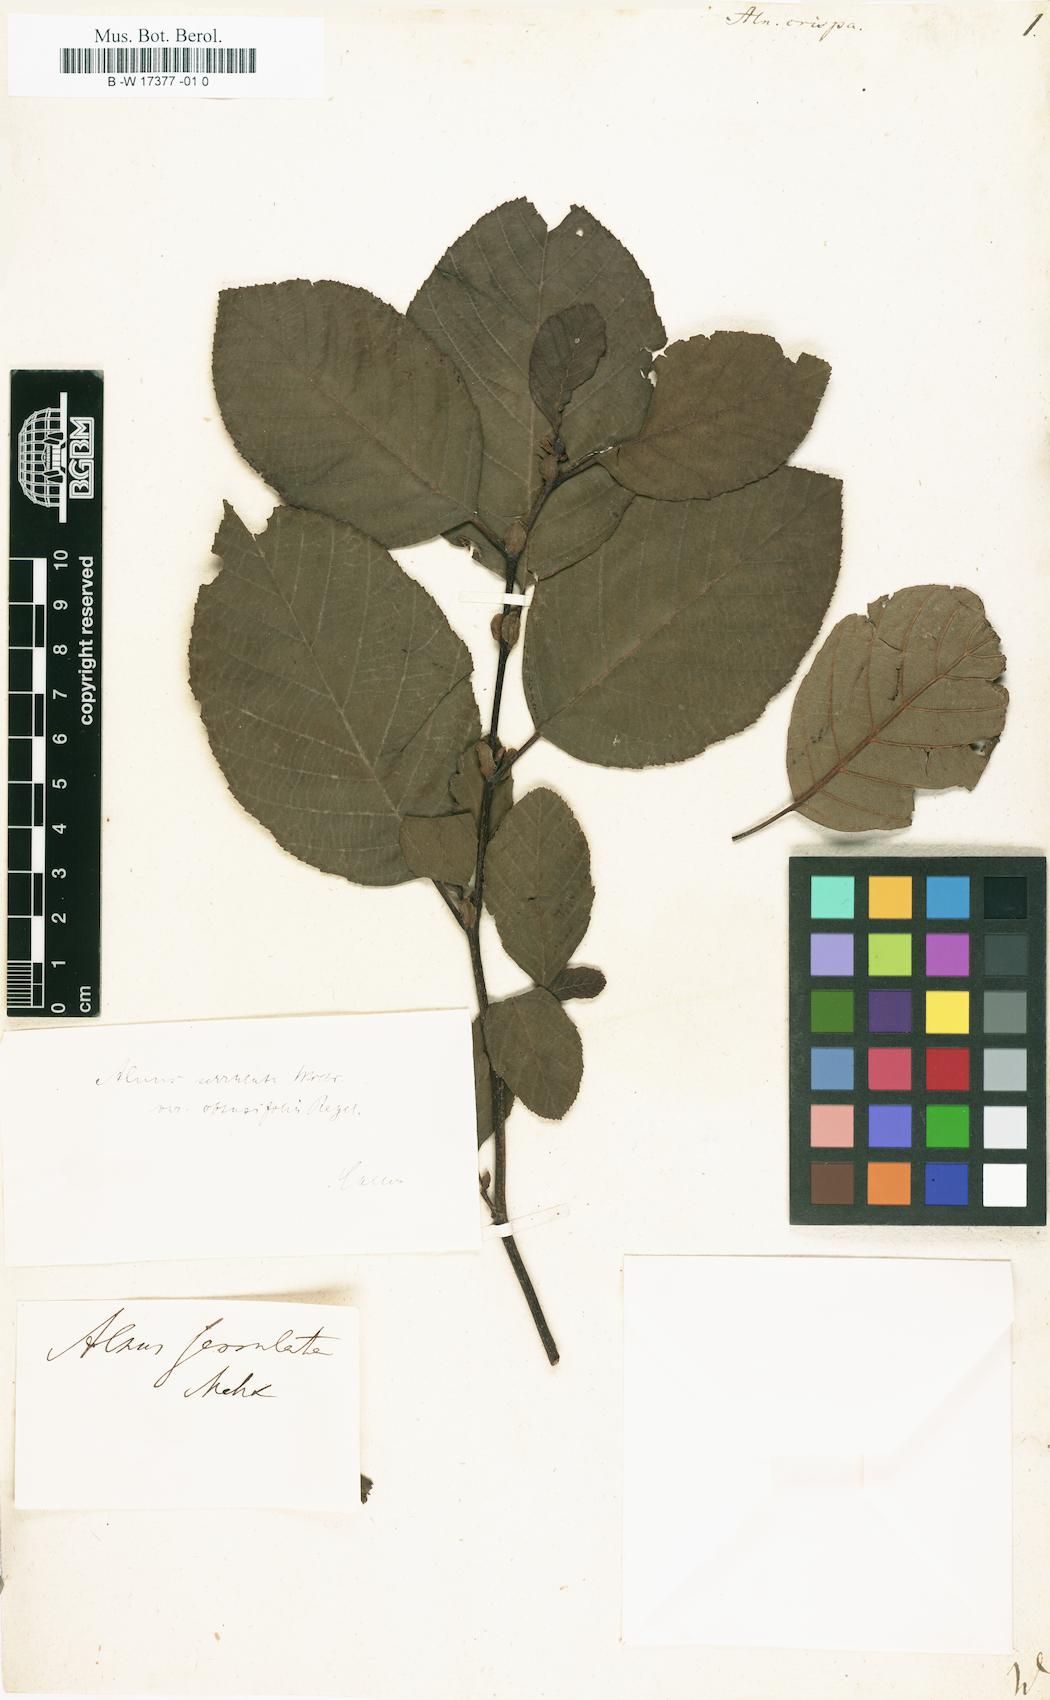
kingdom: Plantae
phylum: Tracheophyta
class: Magnoliopsida
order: Fagales
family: Betulaceae
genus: Alnus
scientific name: Alnus alnobetula
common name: Green alder
